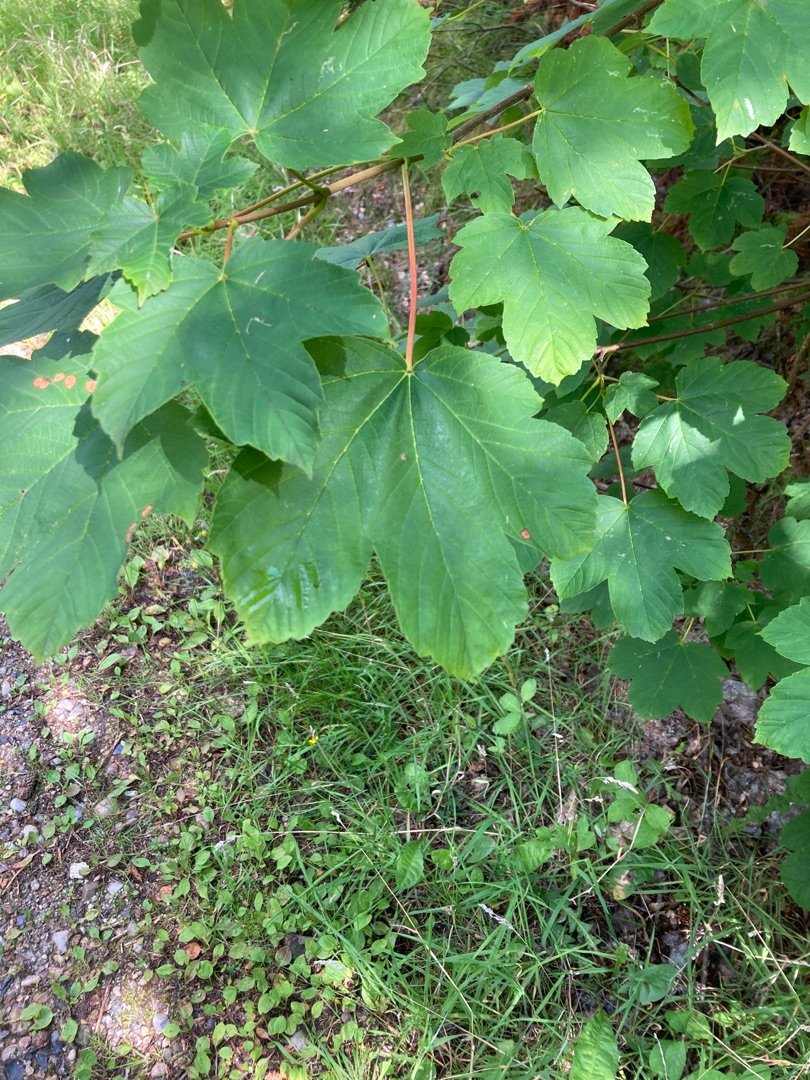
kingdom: Plantae
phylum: Tracheophyta
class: Magnoliopsida
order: Sapindales
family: Sapindaceae
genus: Acer
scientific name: Acer pseudoplatanus
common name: Ahorn
